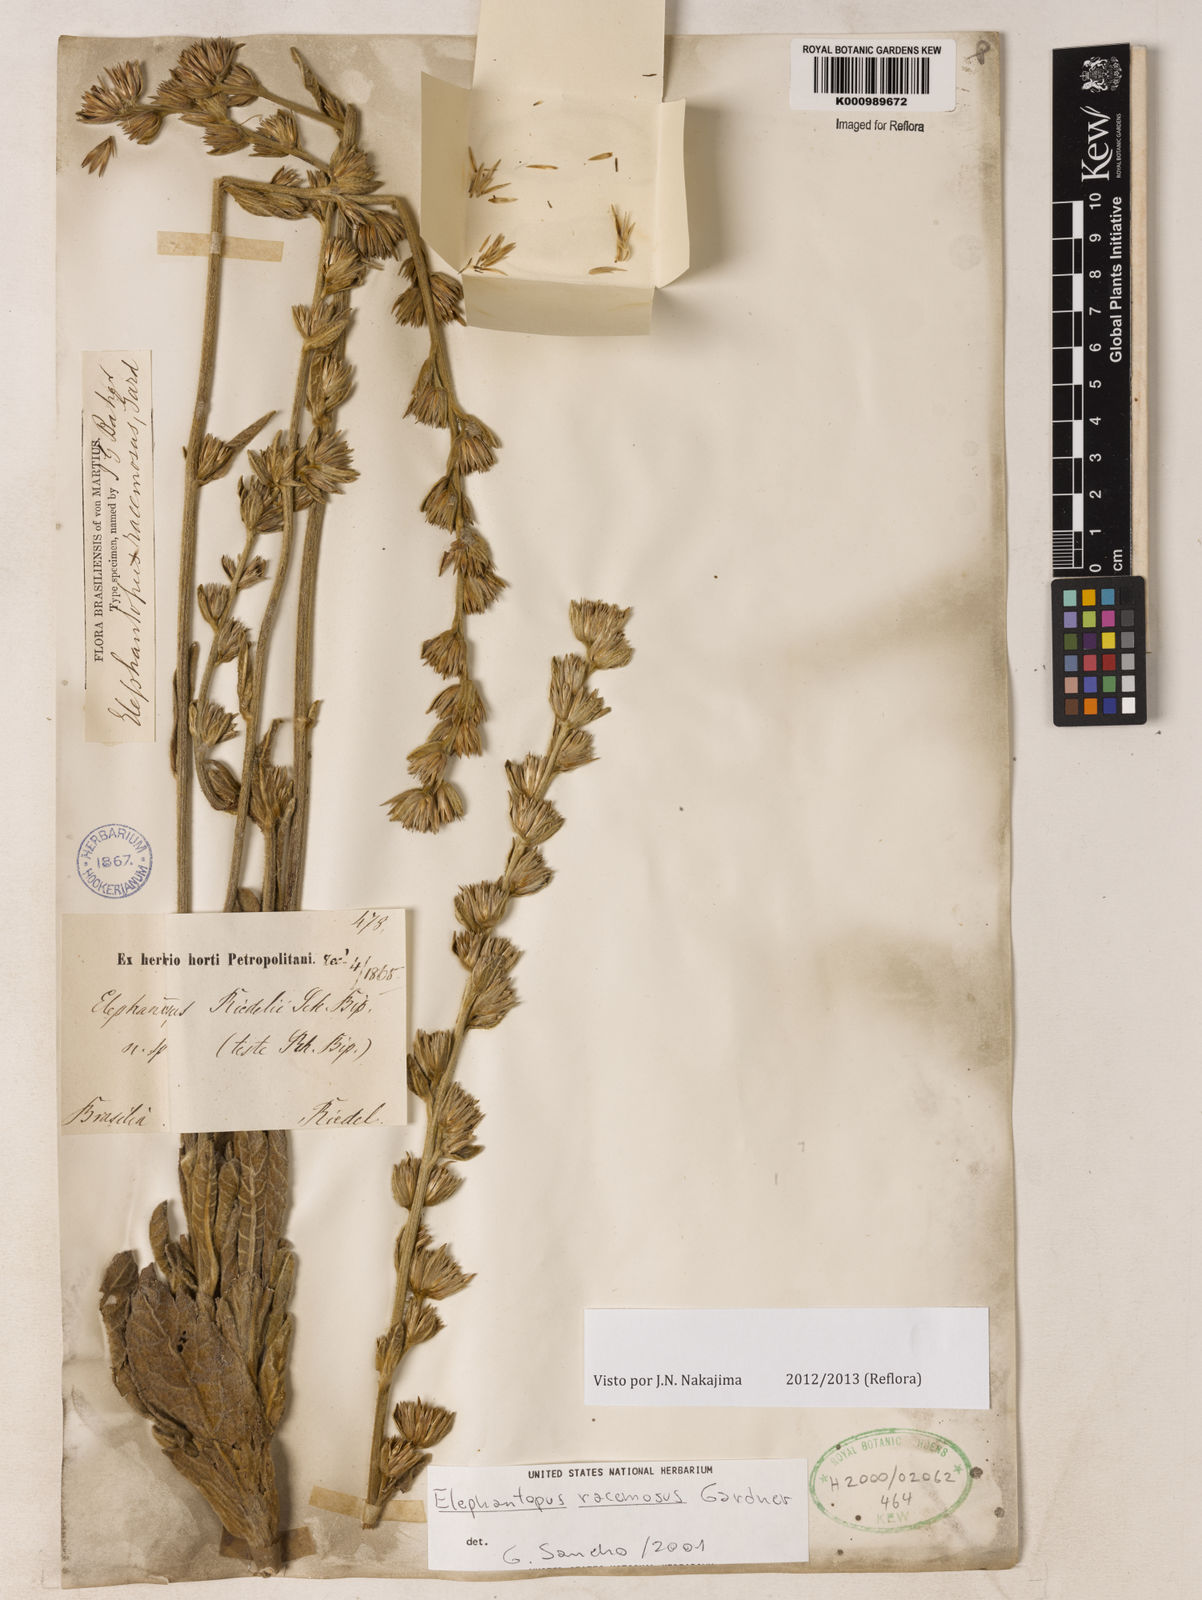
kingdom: Plantae
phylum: Tracheophyta
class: Magnoliopsida
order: Asterales
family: Asteraceae
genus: Elephantopus
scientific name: Elephantopus racemosus
